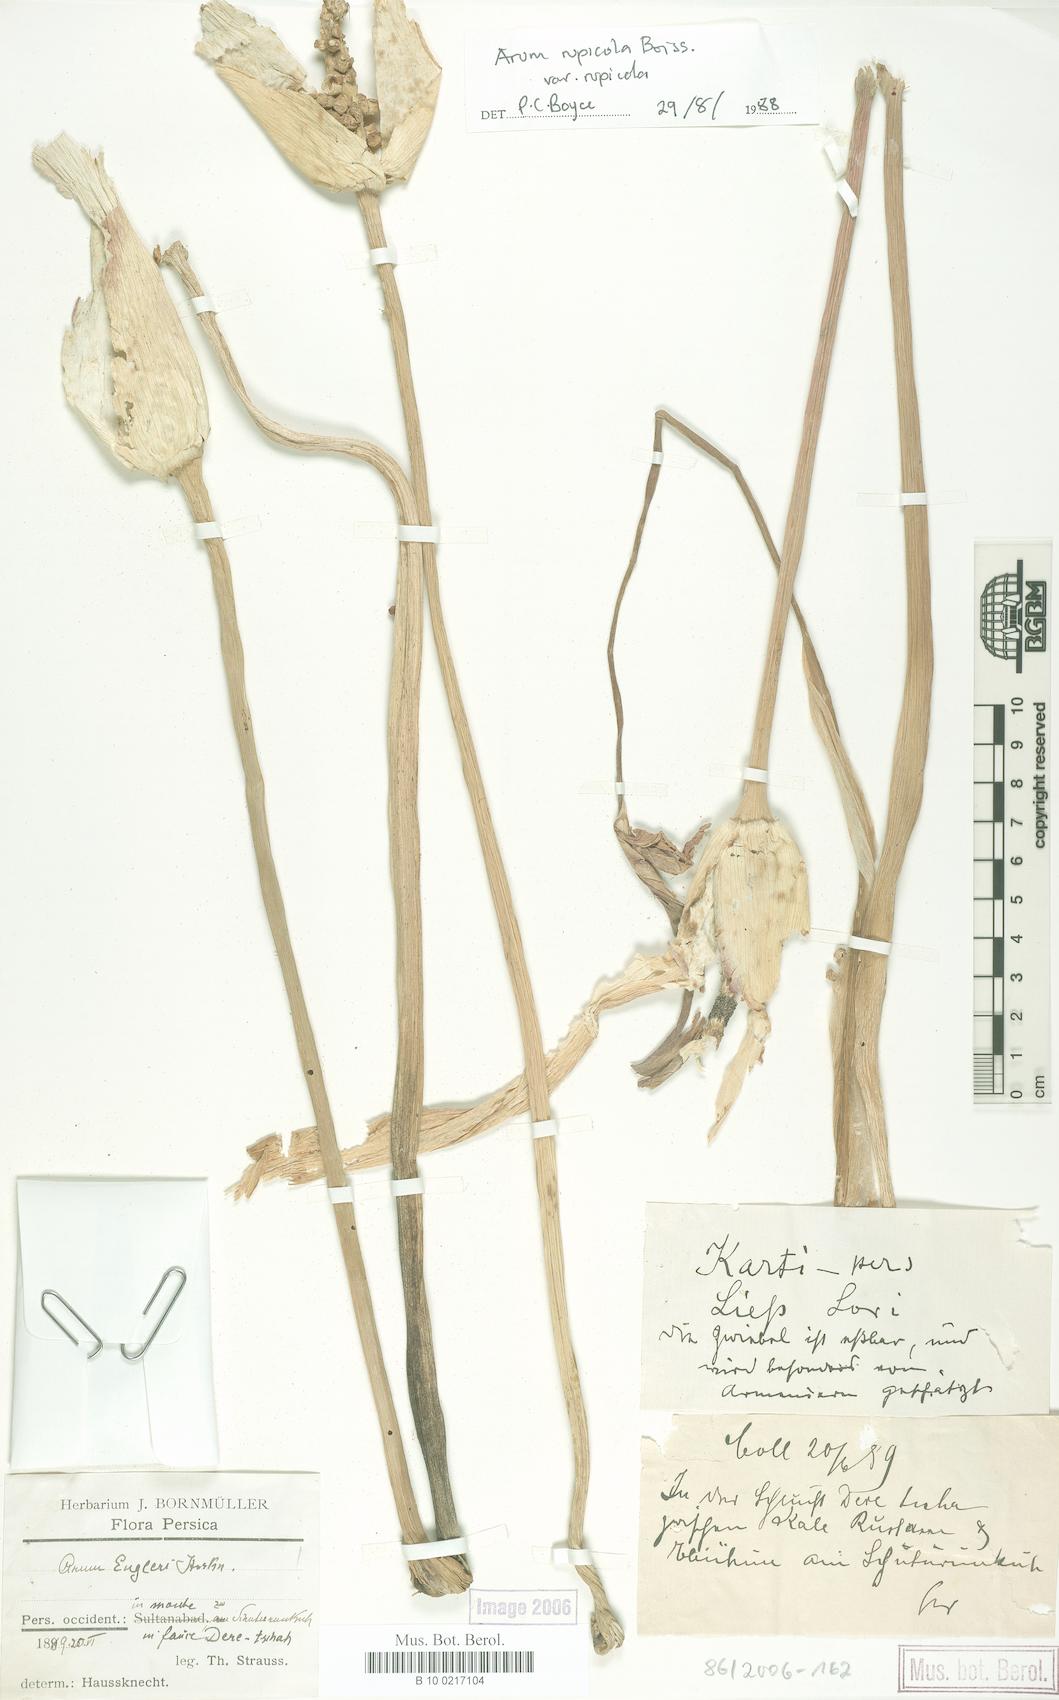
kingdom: Plantae
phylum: Tracheophyta
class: Liliopsida
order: Alismatales
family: Araceae
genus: Arum
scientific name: Arum rupicola
